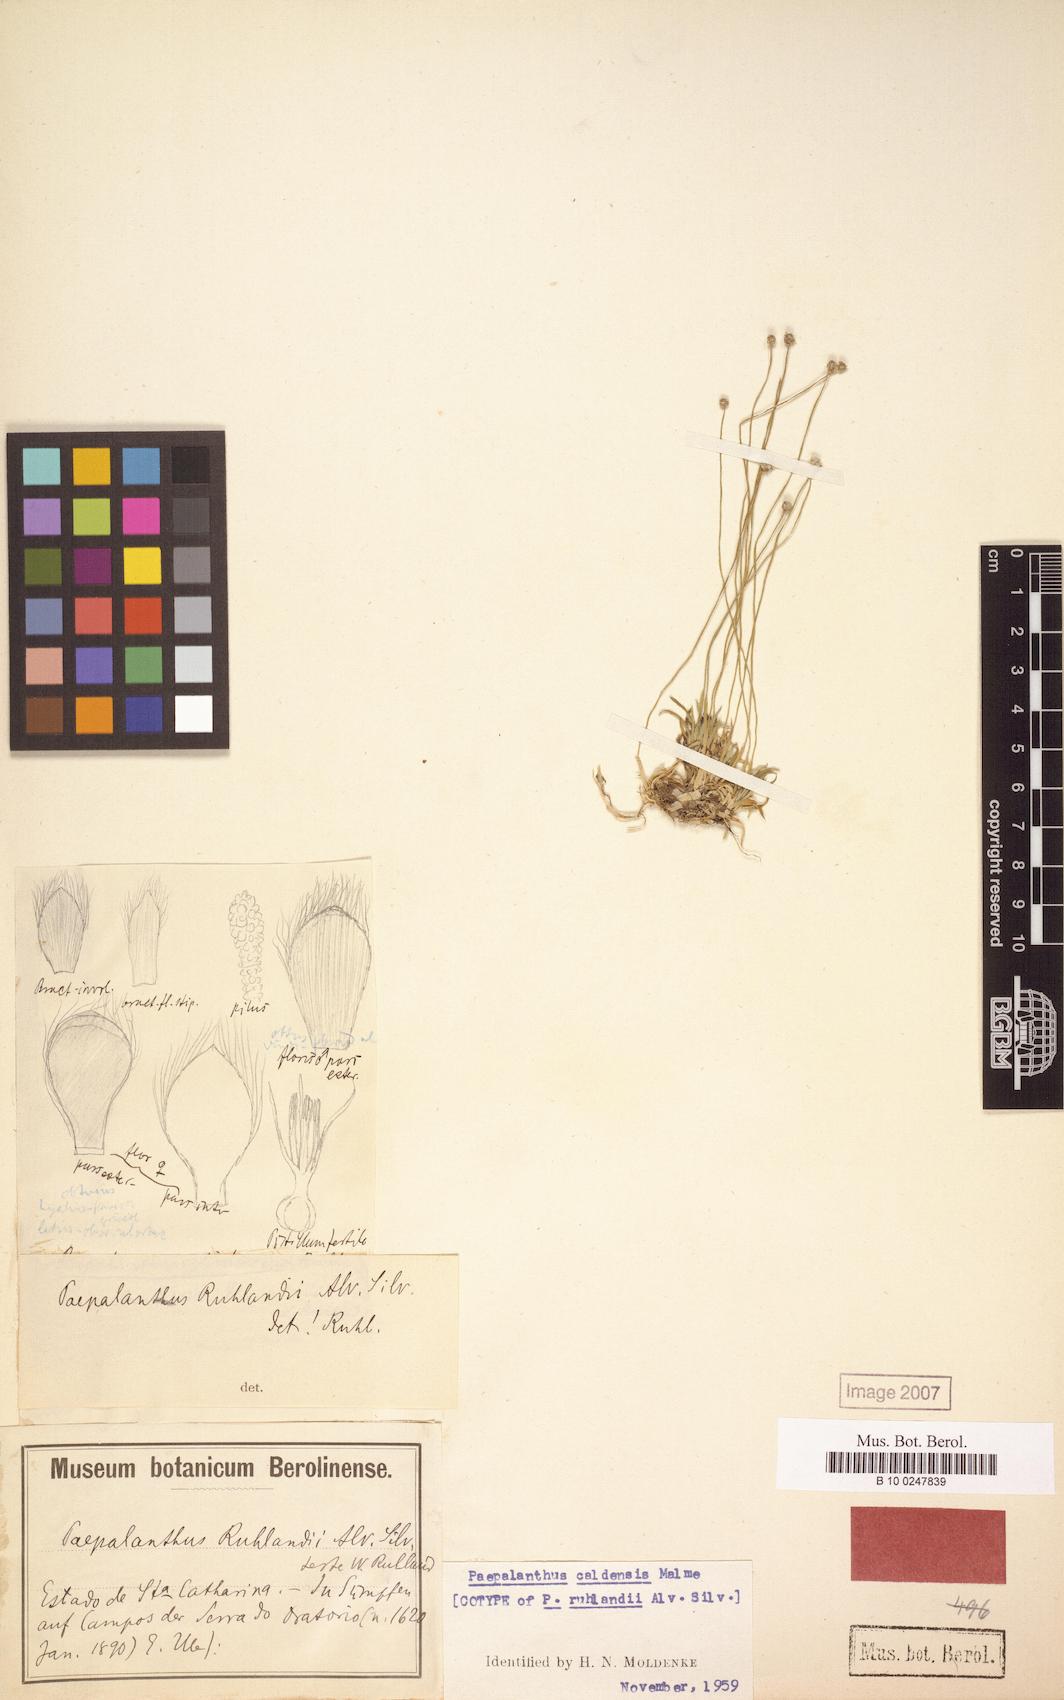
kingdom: Plantae
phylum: Tracheophyta
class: Liliopsida
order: Poales
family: Eriocaulaceae
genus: Paepalanthus
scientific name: Paepalanthus caldensis
